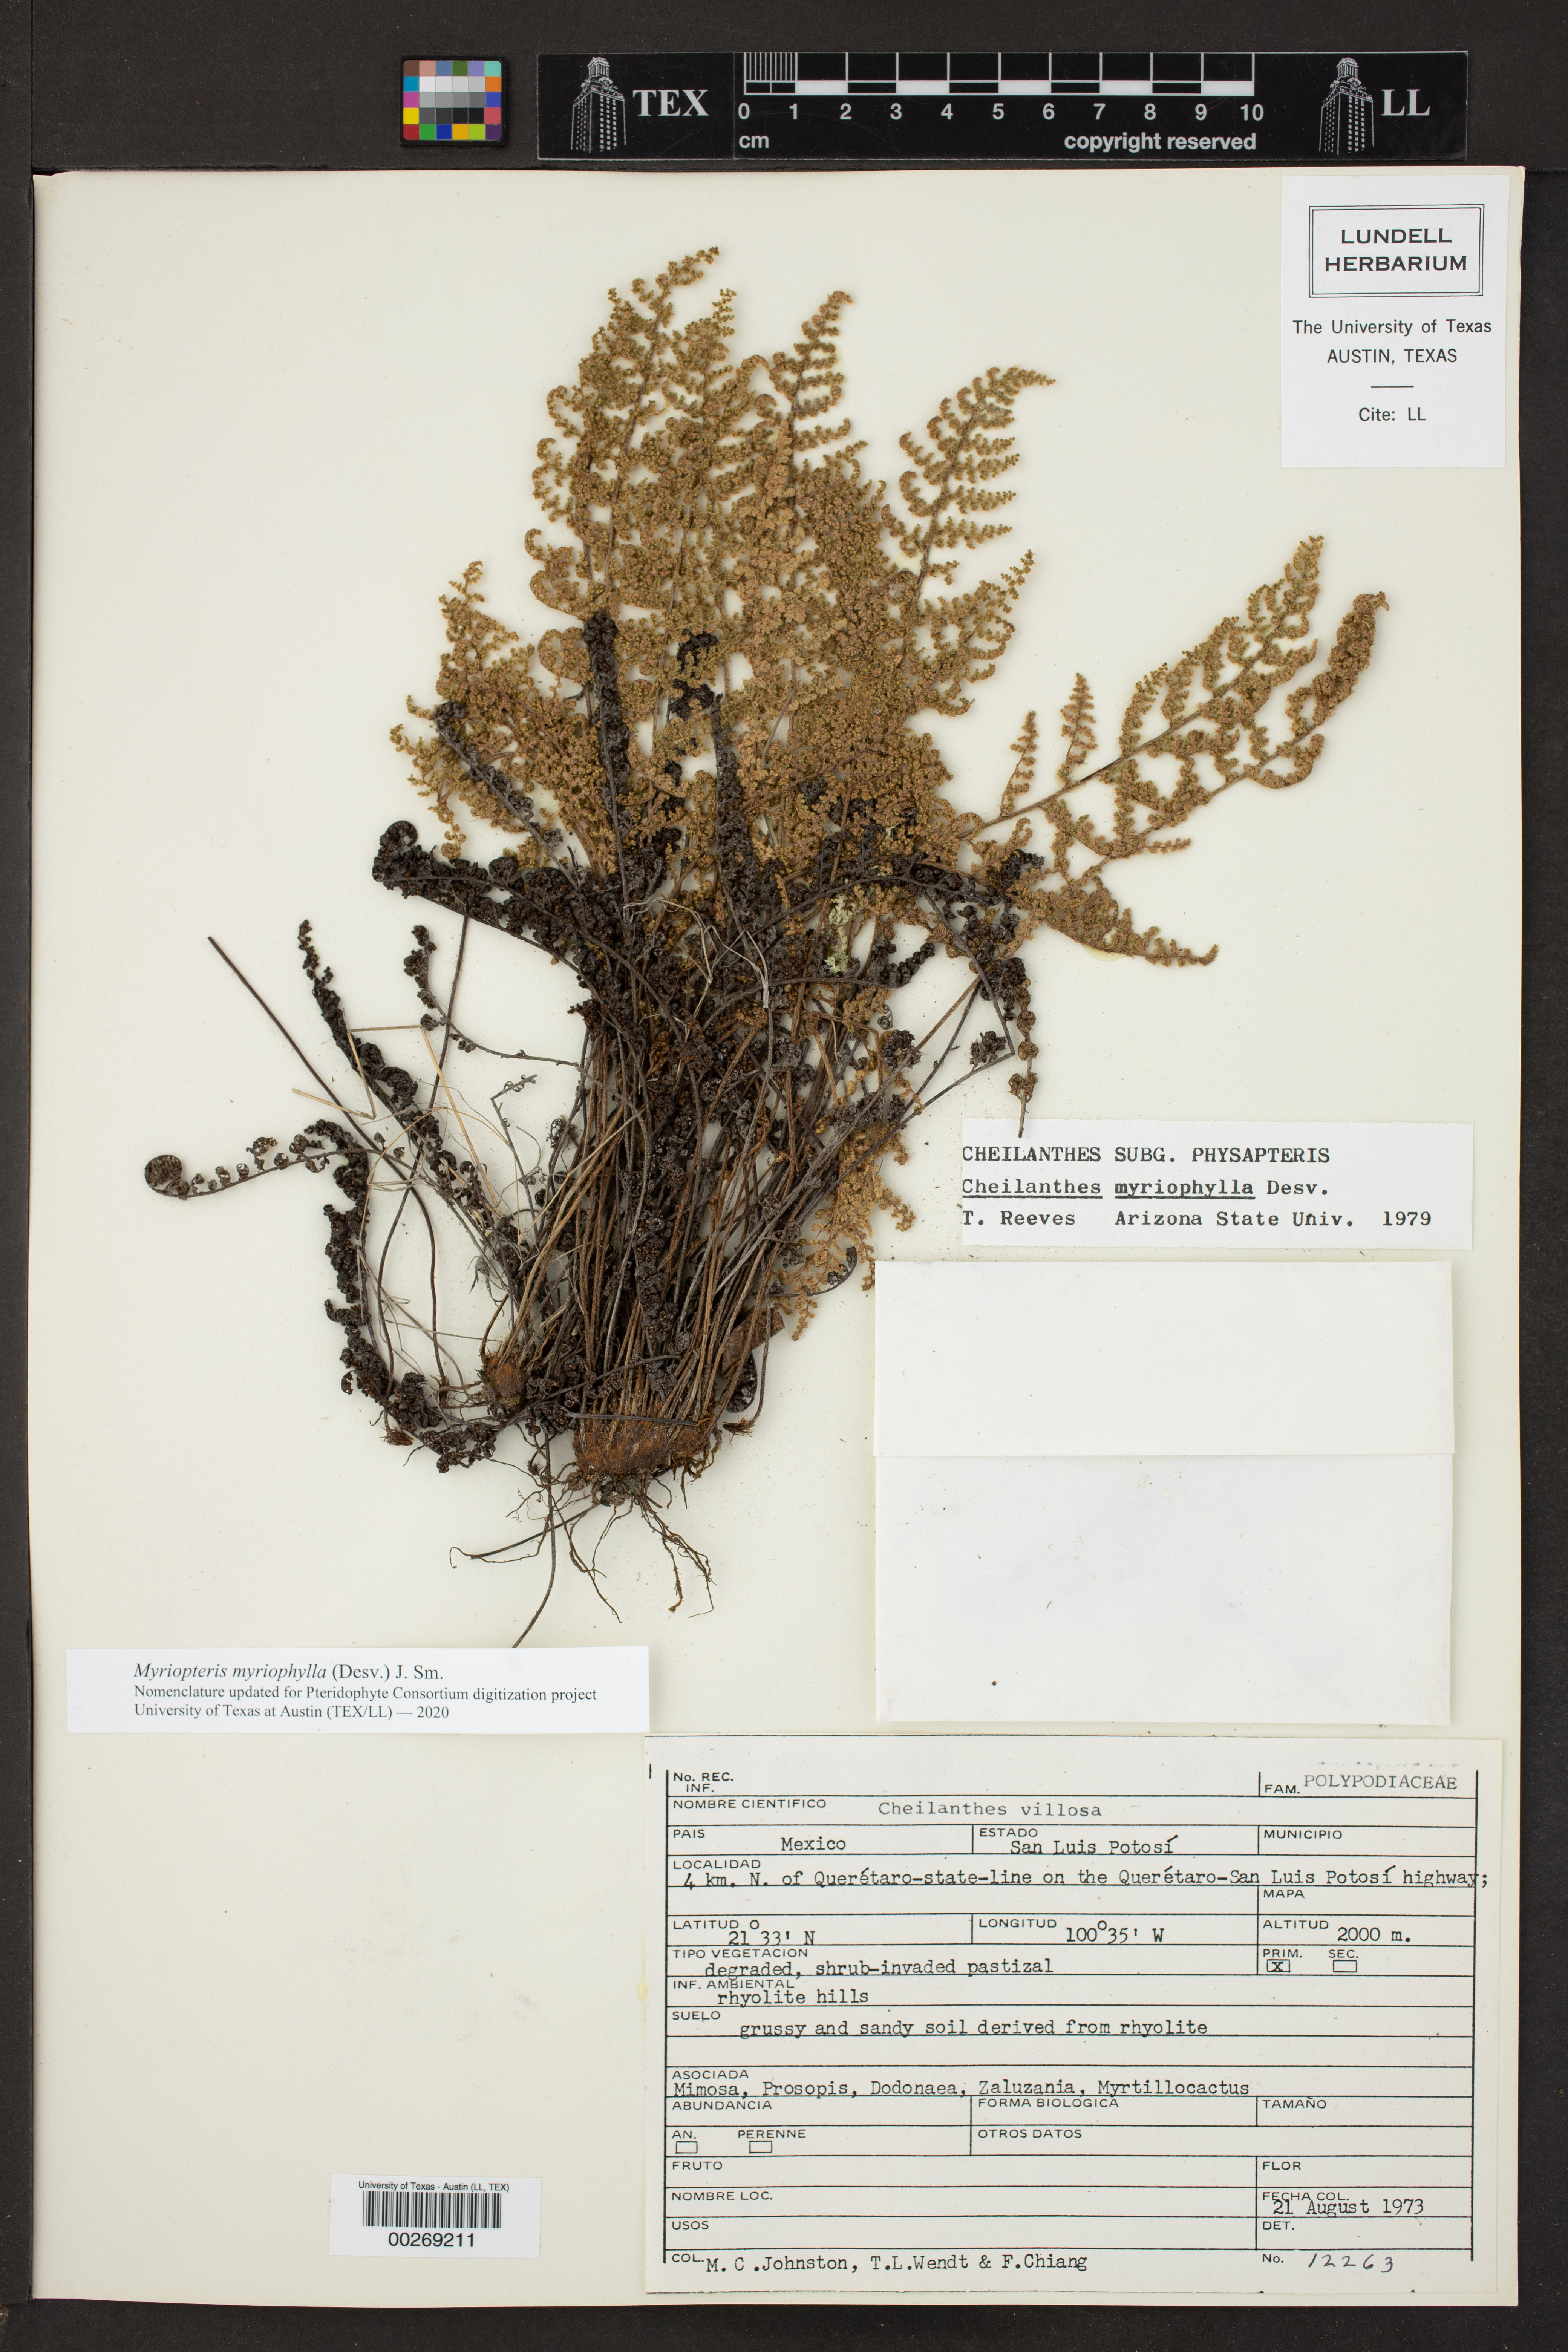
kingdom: Plantae
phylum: Tracheophyta
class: Polypodiopsida
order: Polypodiales
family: Pteridaceae
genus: Myriopteris
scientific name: Myriopteris myriophylla
